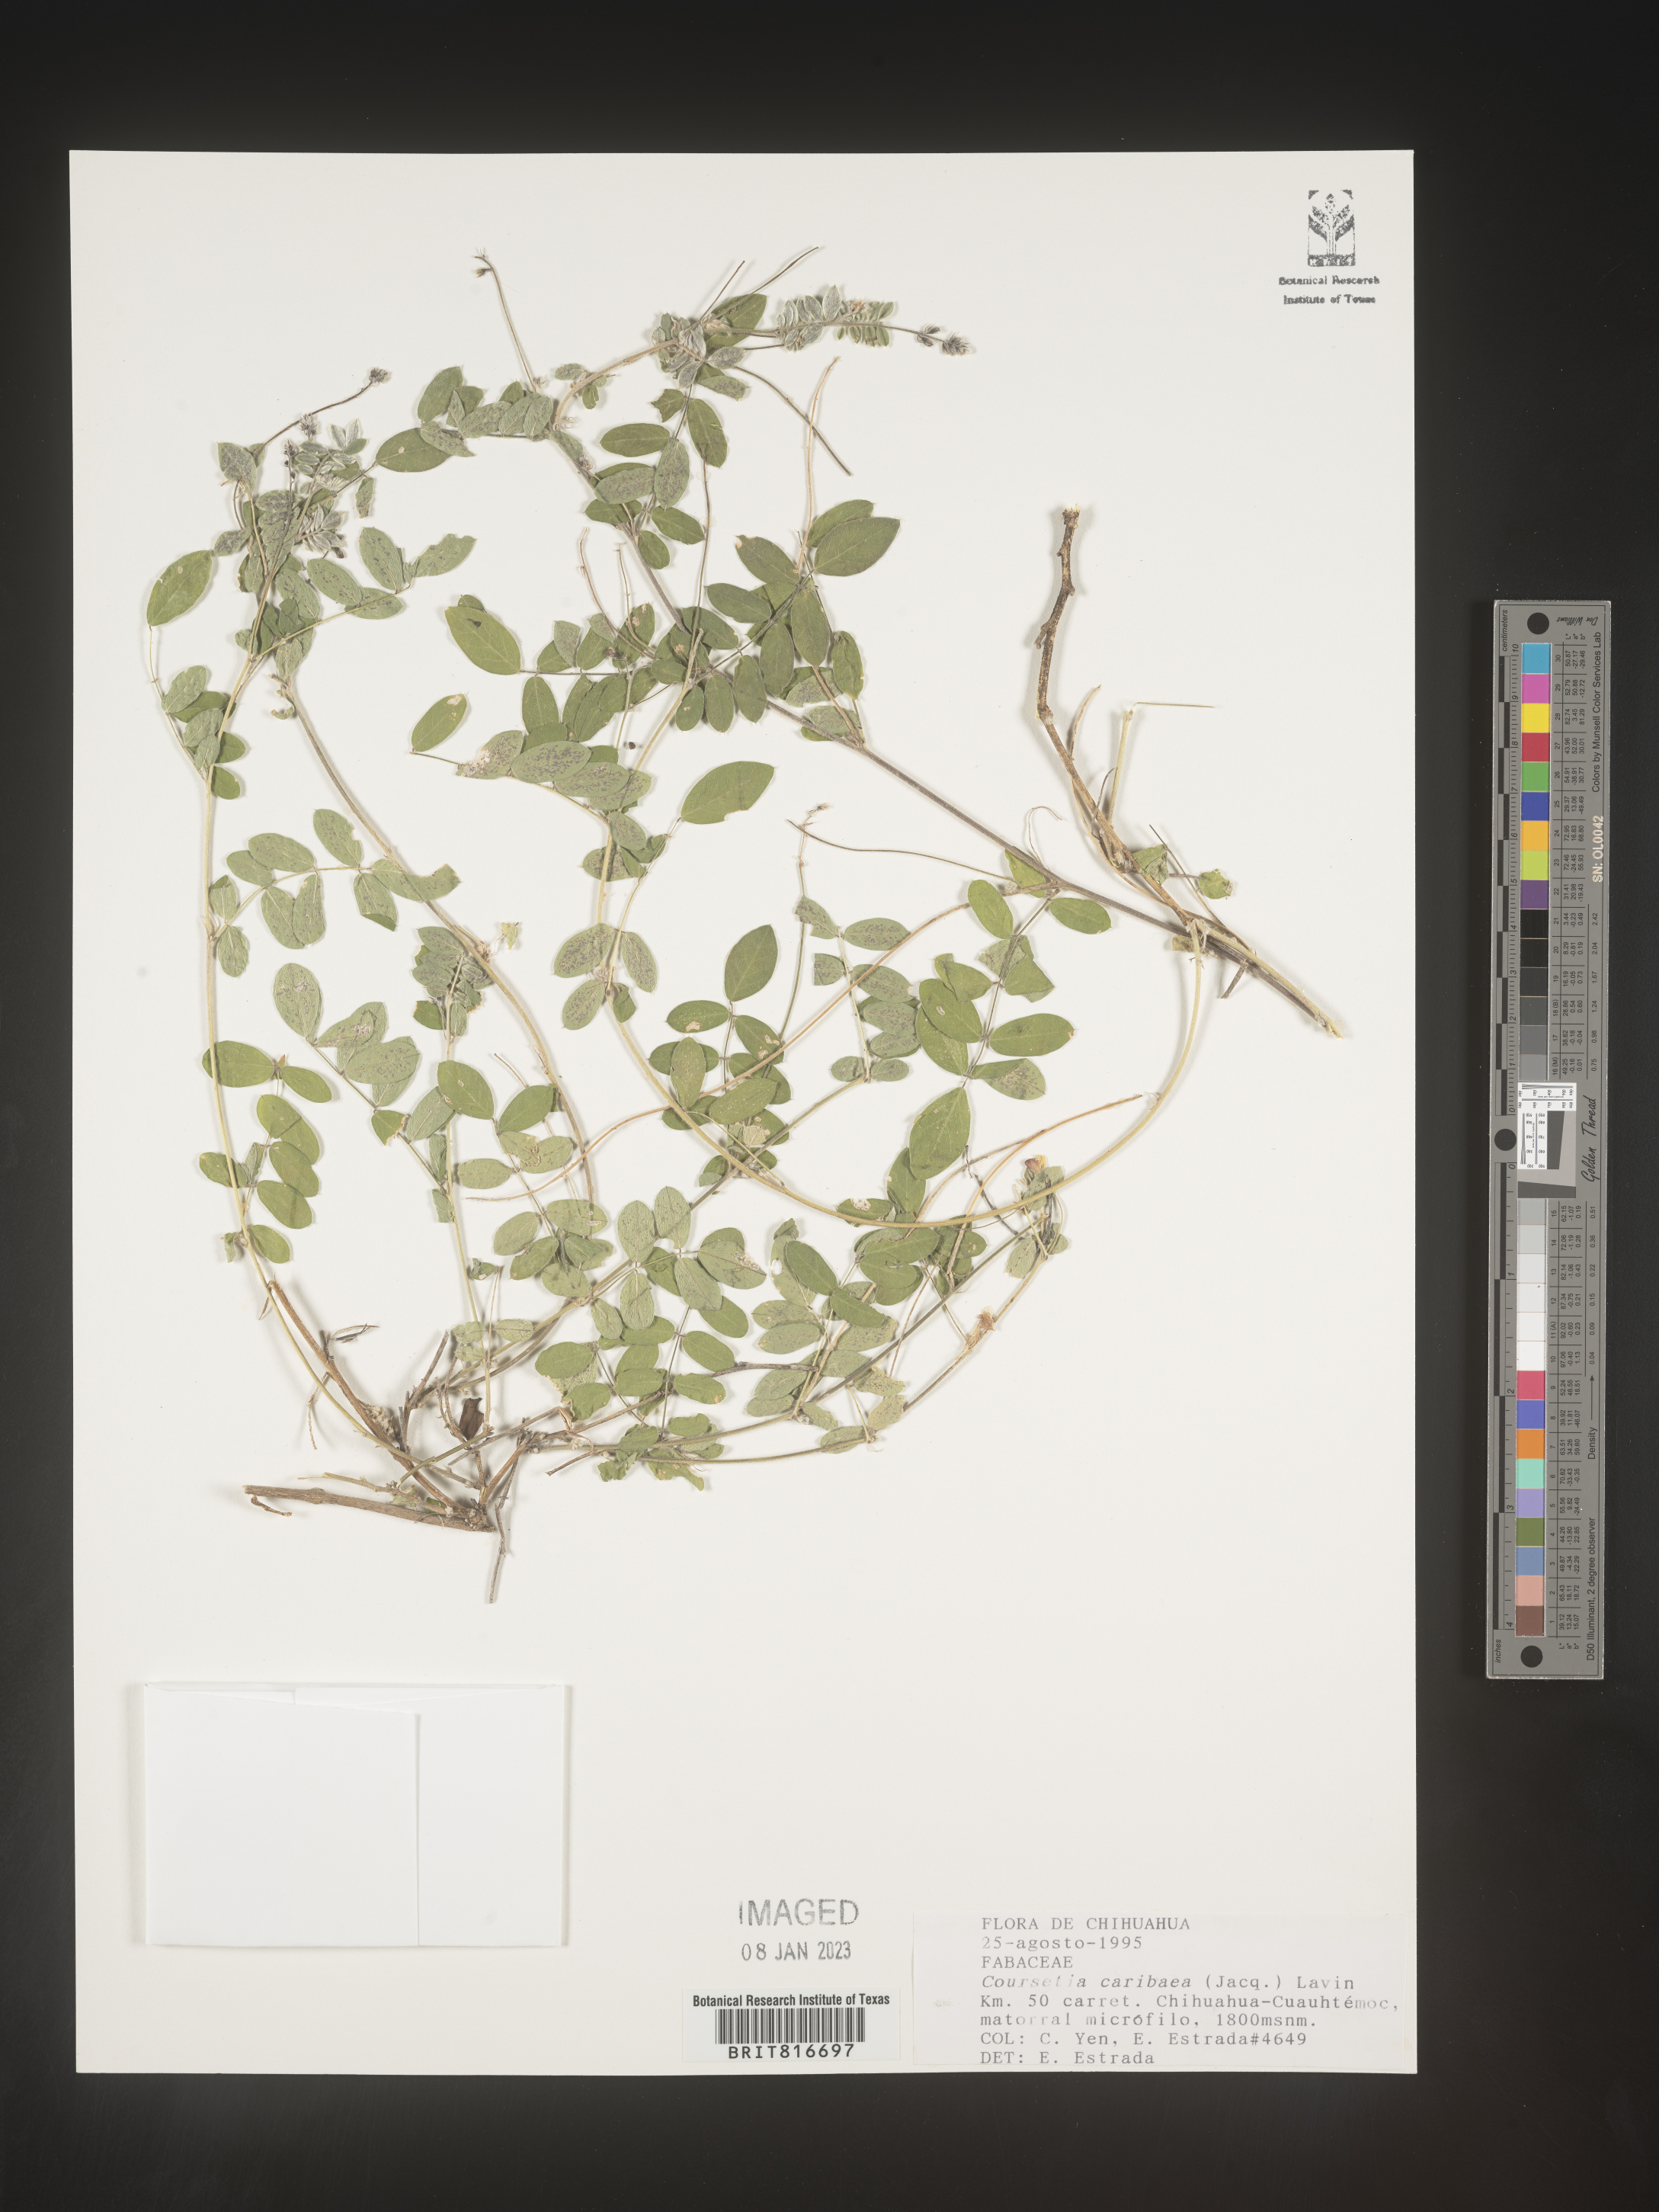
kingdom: Plantae
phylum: Tracheophyta
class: Magnoliopsida
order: Fabales
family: Fabaceae
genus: Coursetia
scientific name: Coursetia
